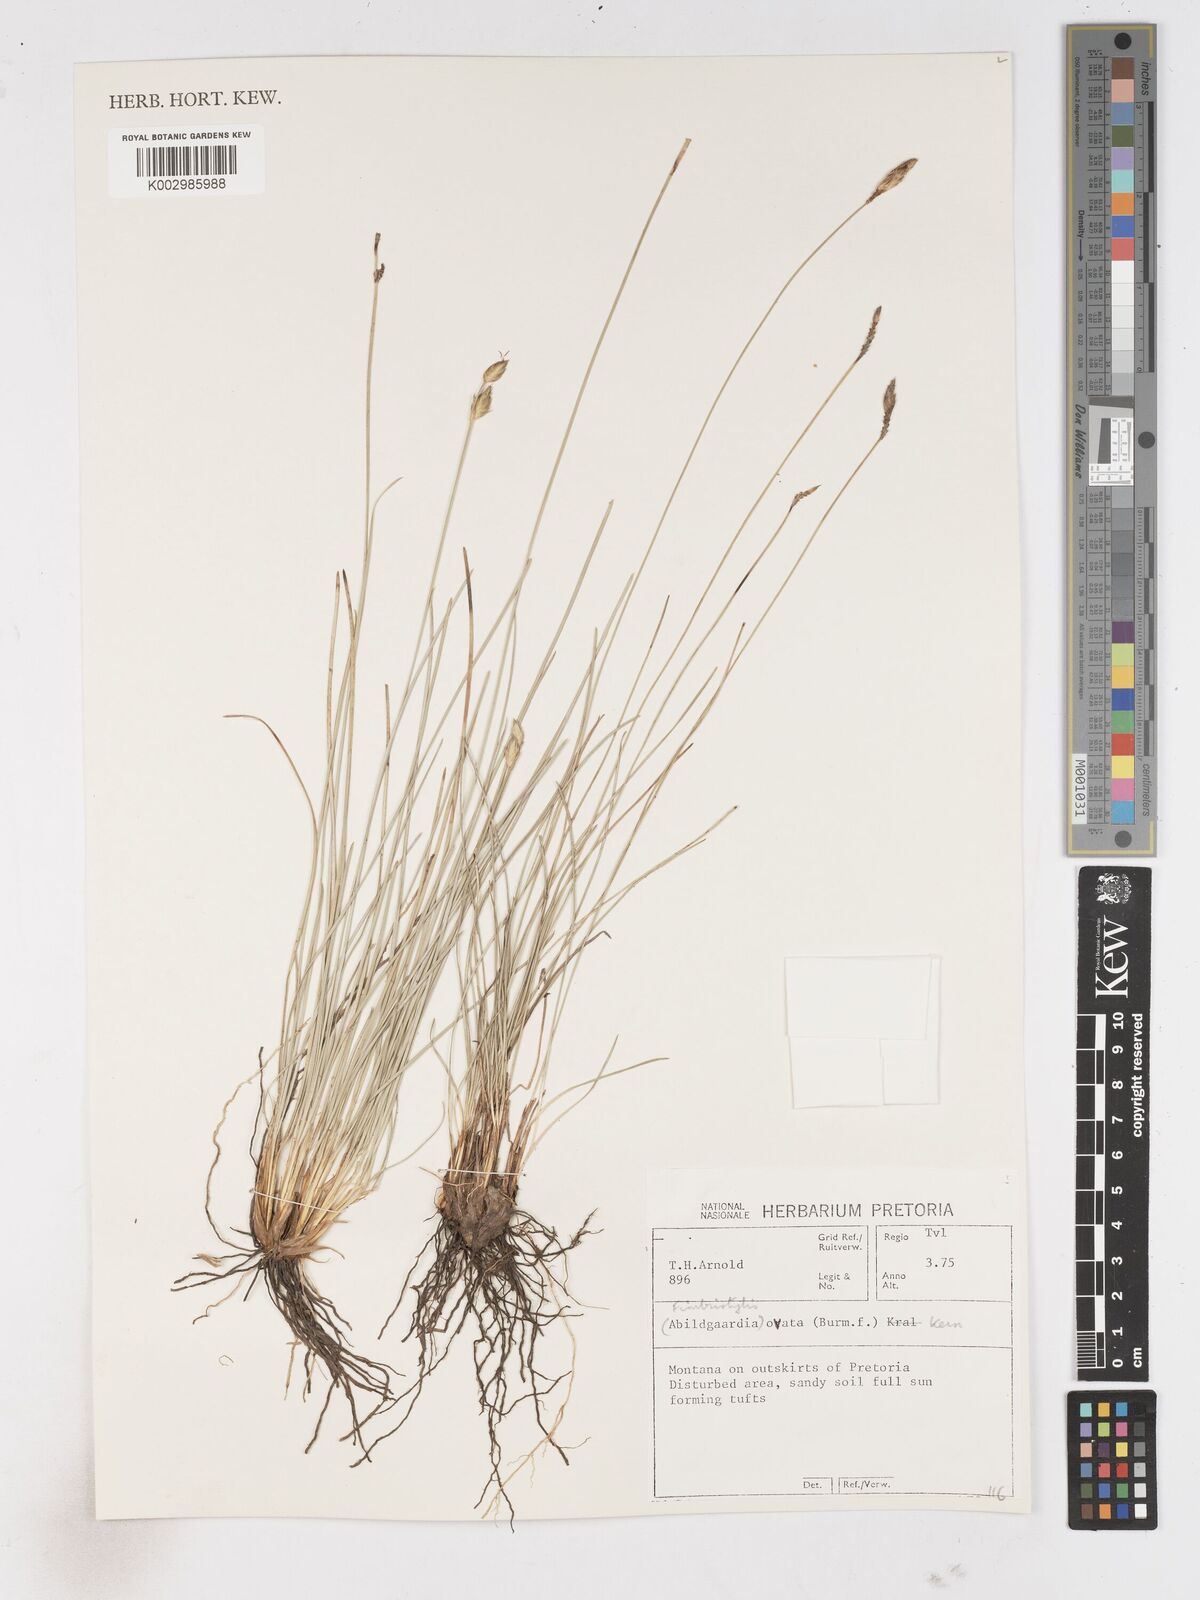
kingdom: Plantae
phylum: Tracheophyta
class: Liliopsida
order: Poales
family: Cyperaceae
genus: Abildgaardia
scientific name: Abildgaardia ovata
